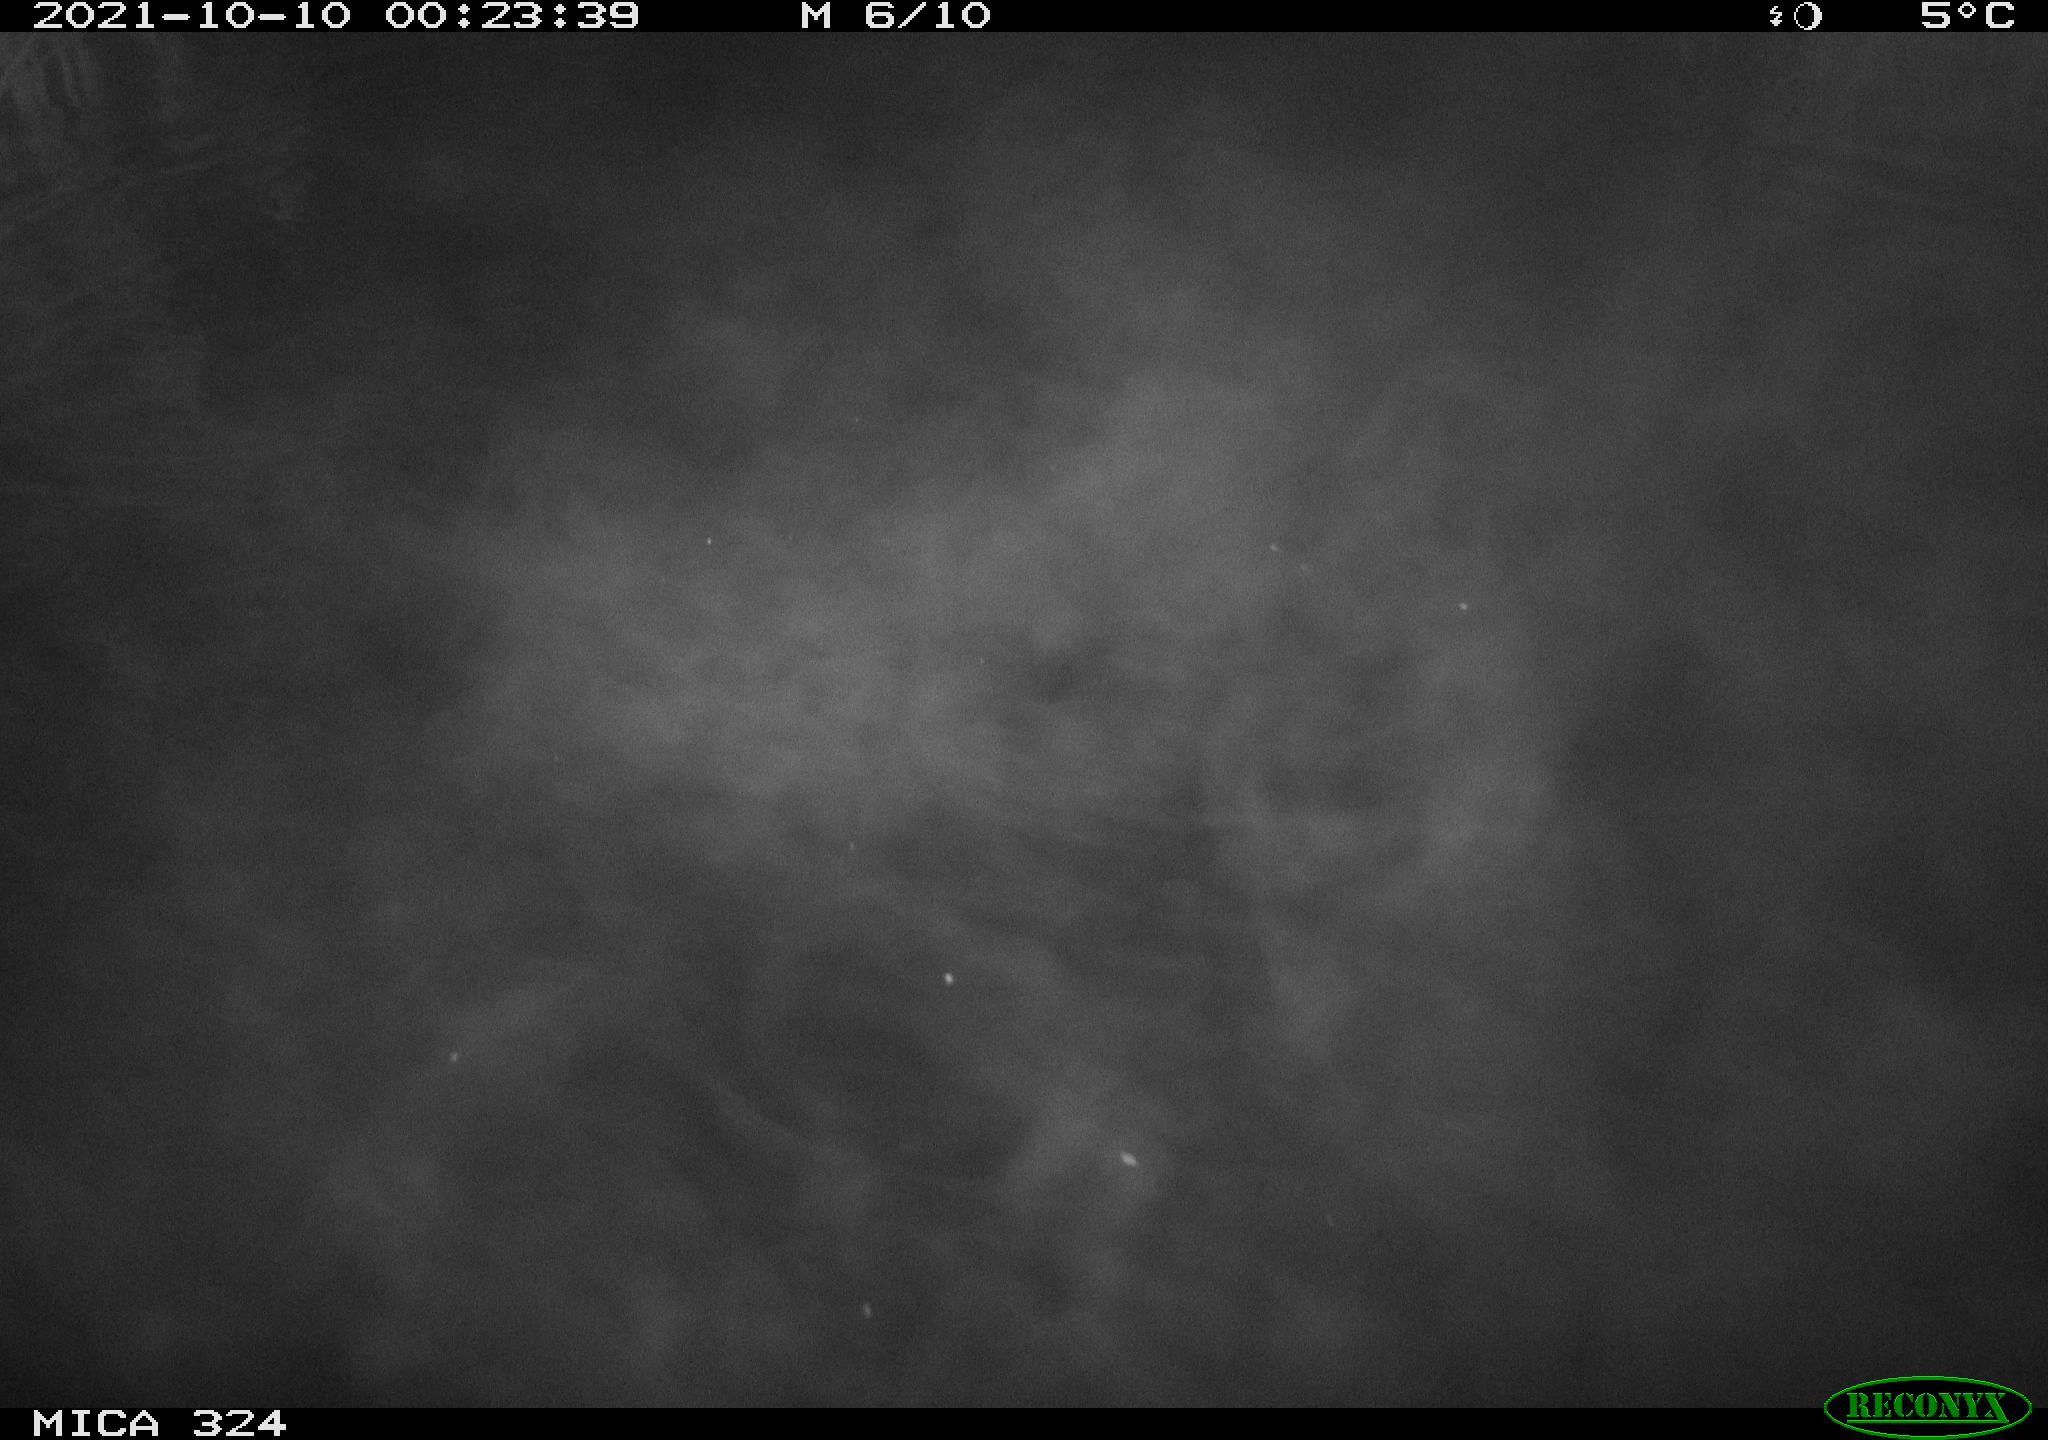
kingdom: Animalia
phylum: Chordata
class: Mammalia
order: Rodentia
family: Cricetidae
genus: Ondatra
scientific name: Ondatra zibethicus
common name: Muskrat
